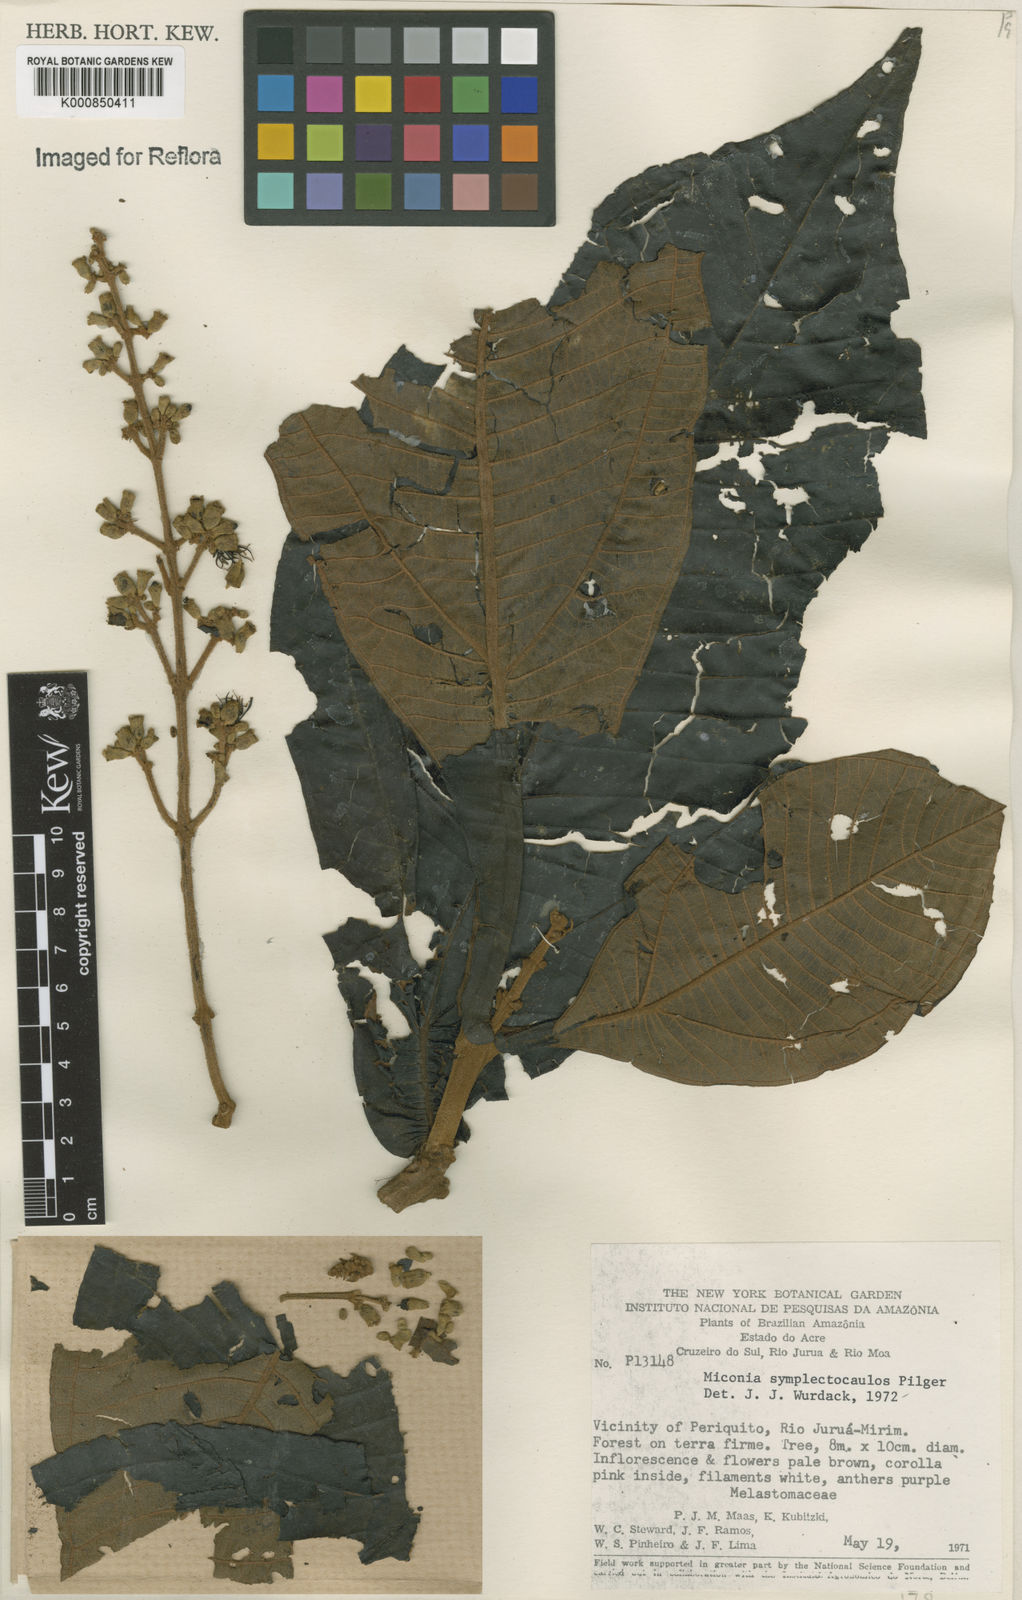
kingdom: Plantae
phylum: Tracheophyta
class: Magnoliopsida
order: Myrtales
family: Melastomataceae
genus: Miconia
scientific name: Miconia symplectocaulos
